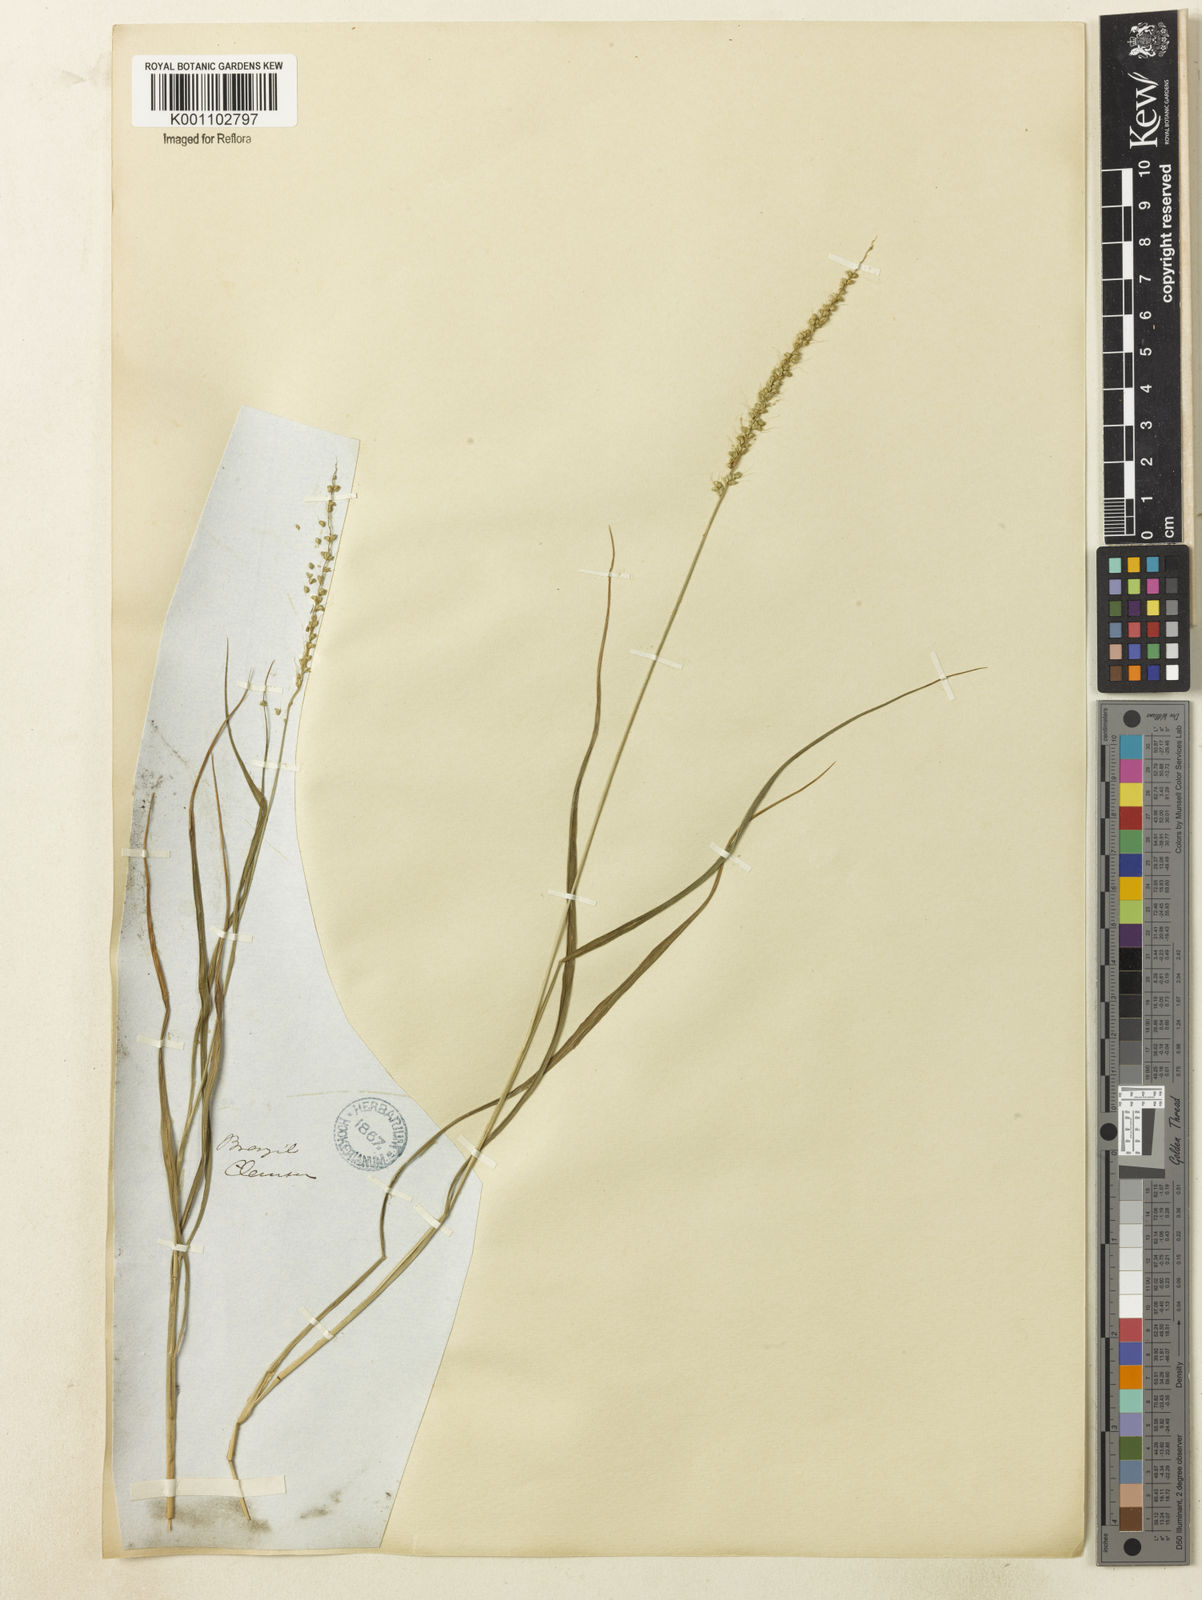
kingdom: Plantae
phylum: Tracheophyta
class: Liliopsida
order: Poales
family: Poaceae
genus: Setaria
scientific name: Setaria setosa
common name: West indies bristle grass
